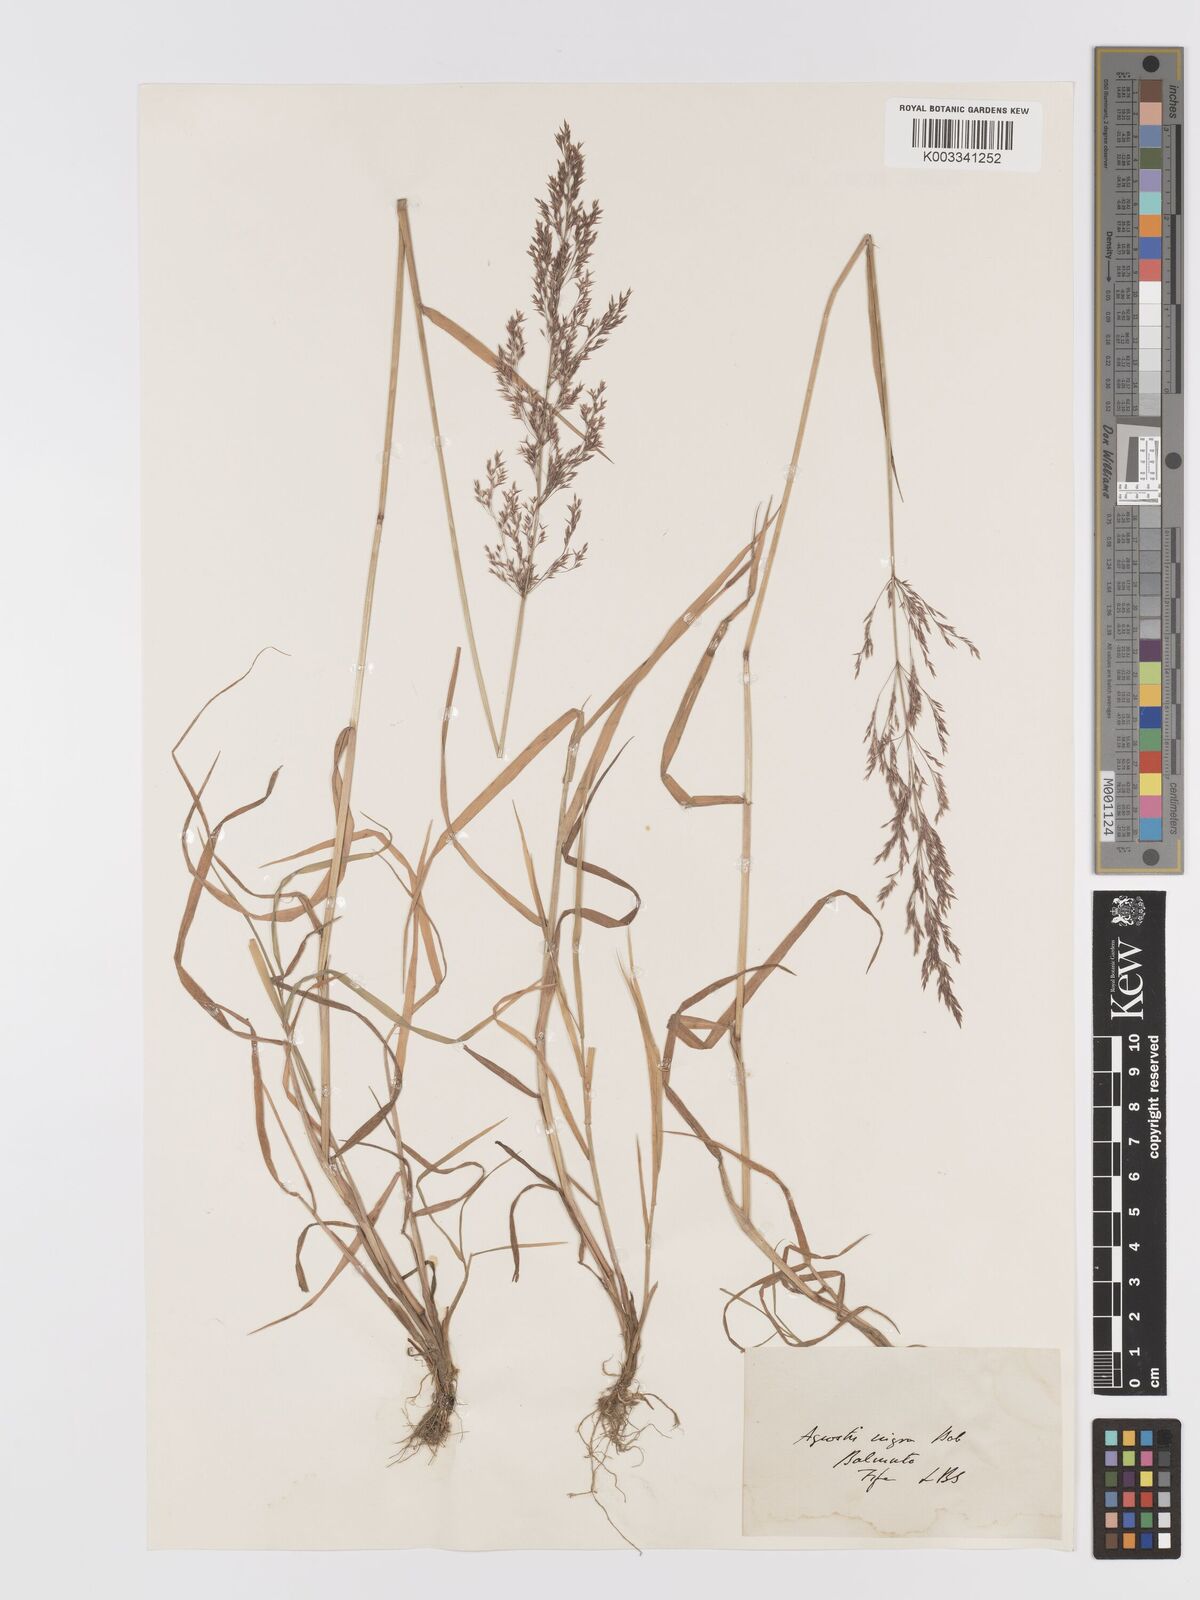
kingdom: Plantae
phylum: Tracheophyta
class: Liliopsida
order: Poales
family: Poaceae
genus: Agrostis
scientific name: Agrostis gigantea
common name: Black bent
